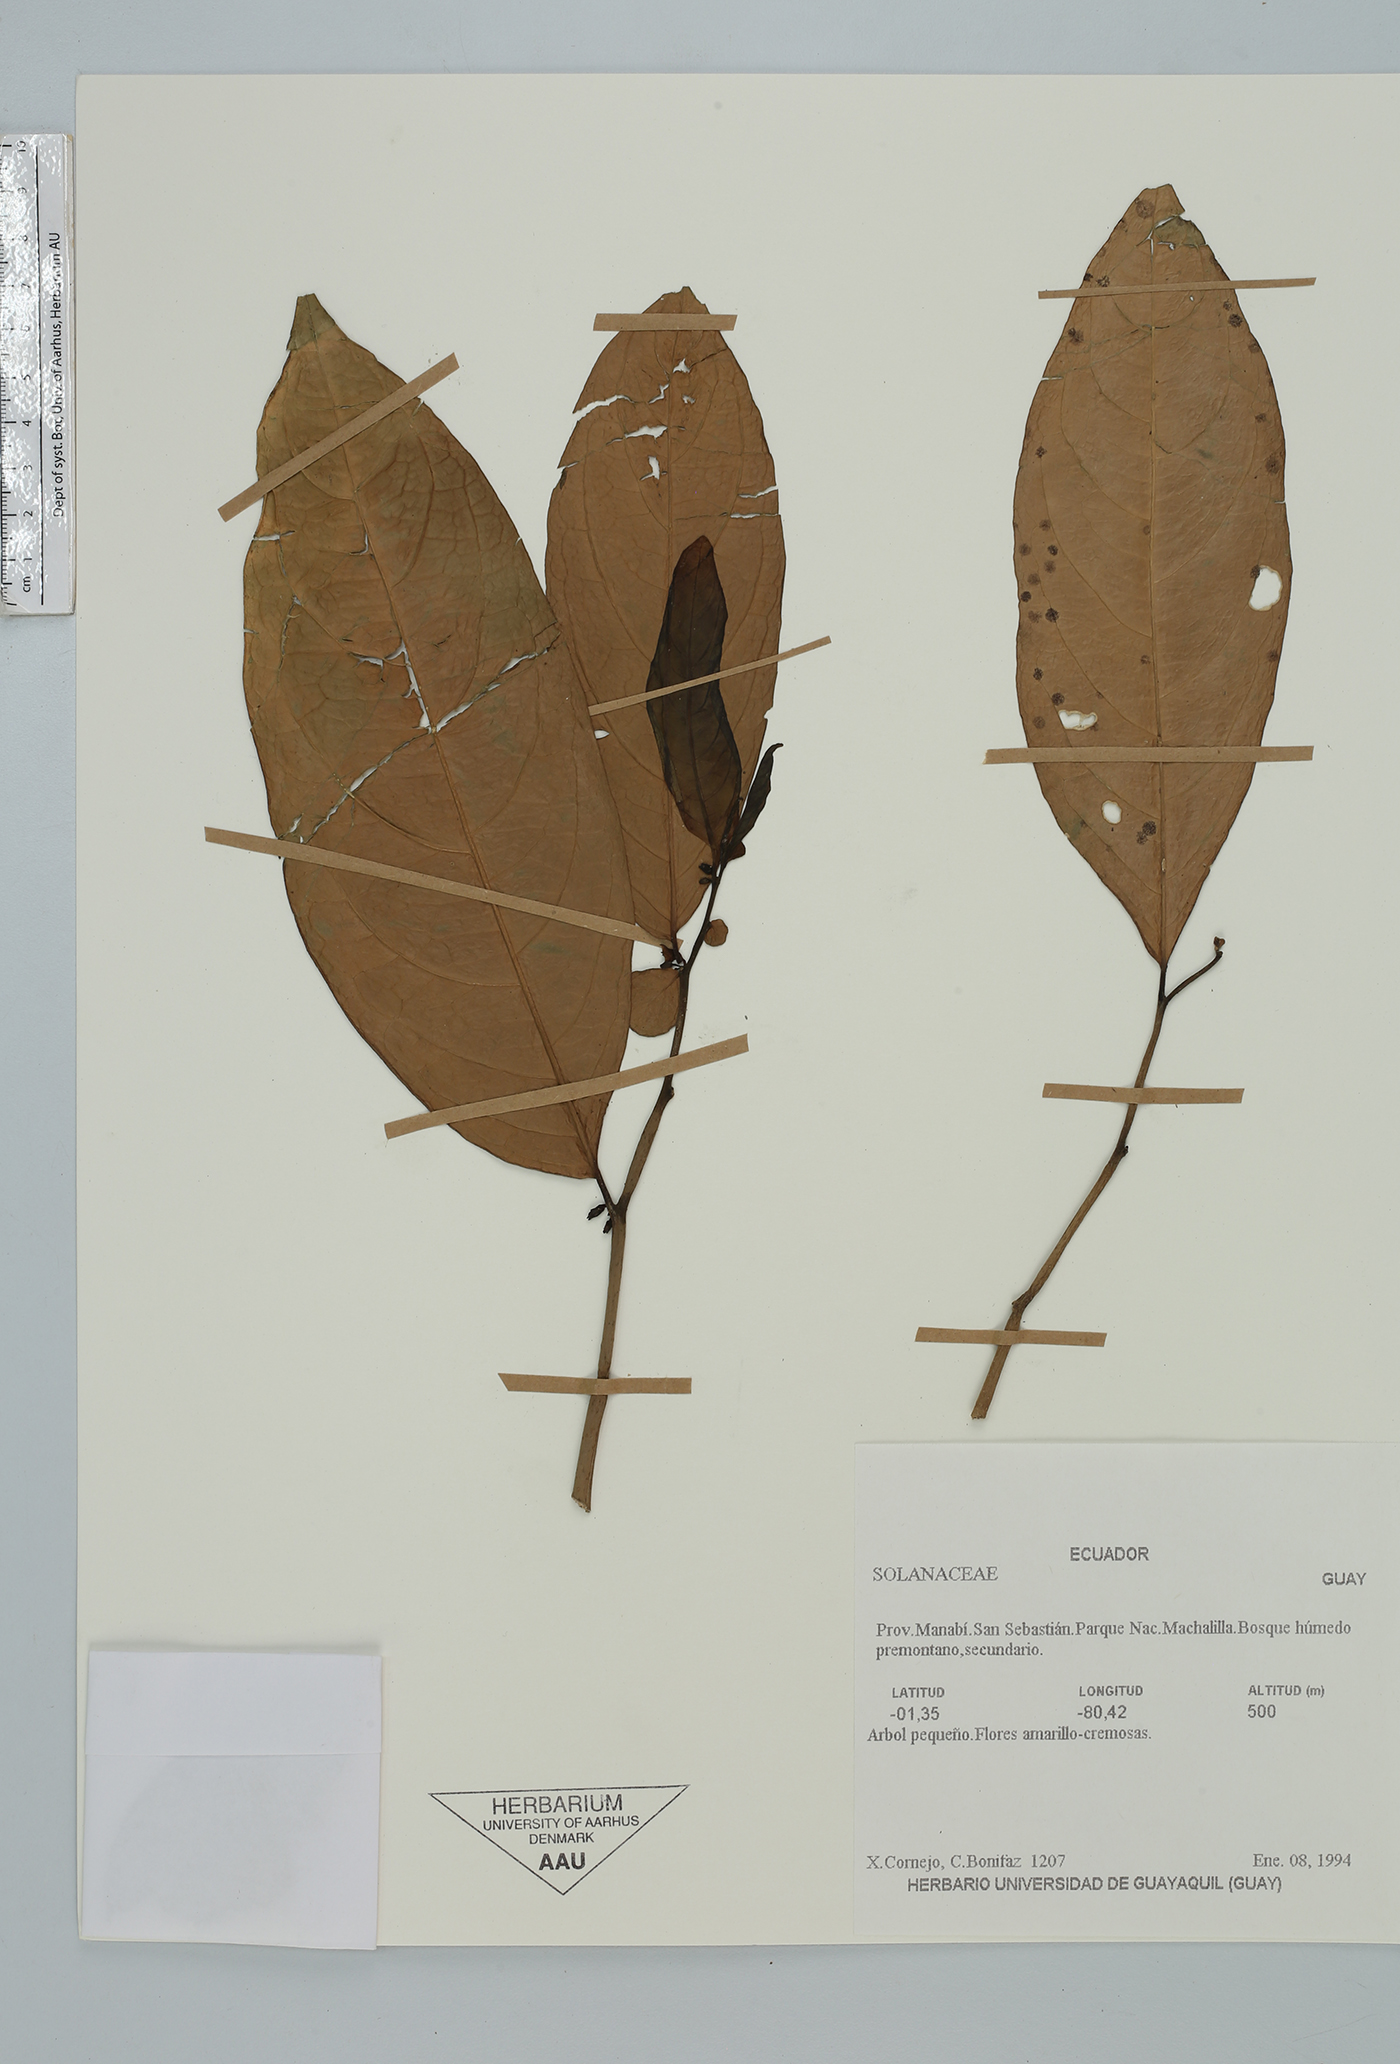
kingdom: Plantae
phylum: Tracheophyta
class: Magnoliopsida
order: Solanales
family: Solanaceae
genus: Cuatresia
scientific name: Cuatresia
